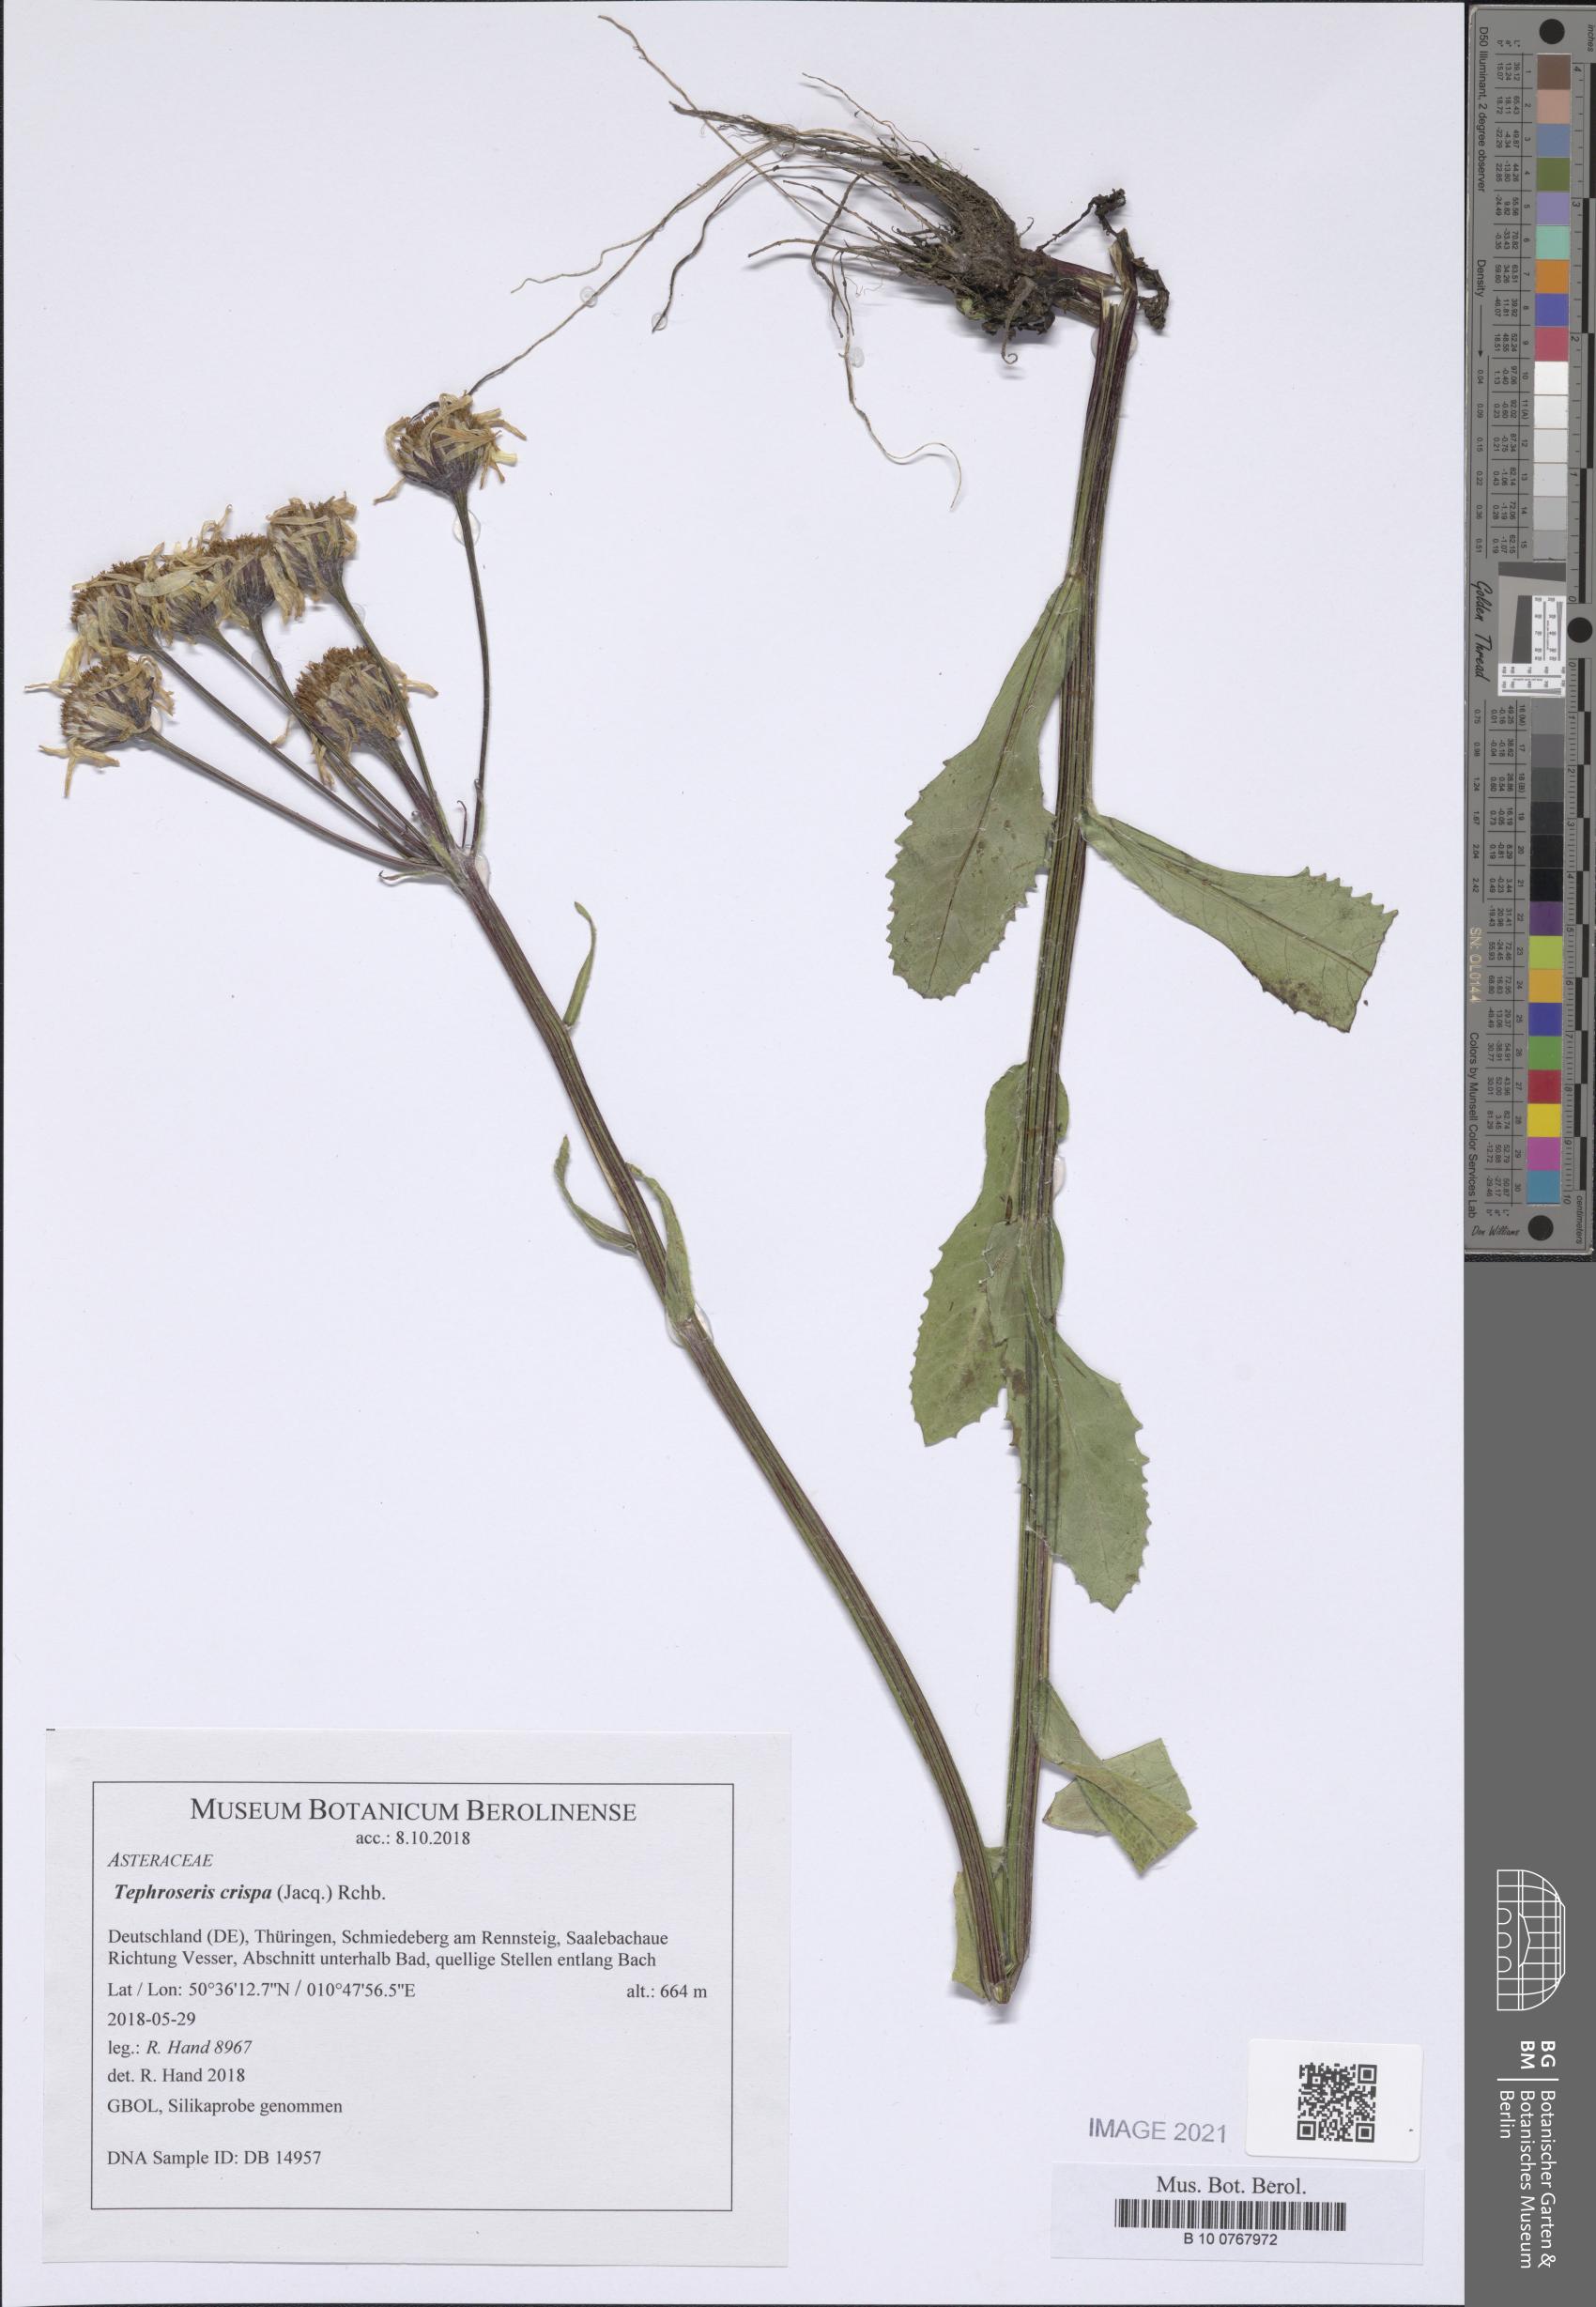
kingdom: Plantae
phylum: Tracheophyta
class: Magnoliopsida
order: Asterales
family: Asteraceae
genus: Tephroseris
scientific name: Tephroseris crispa
